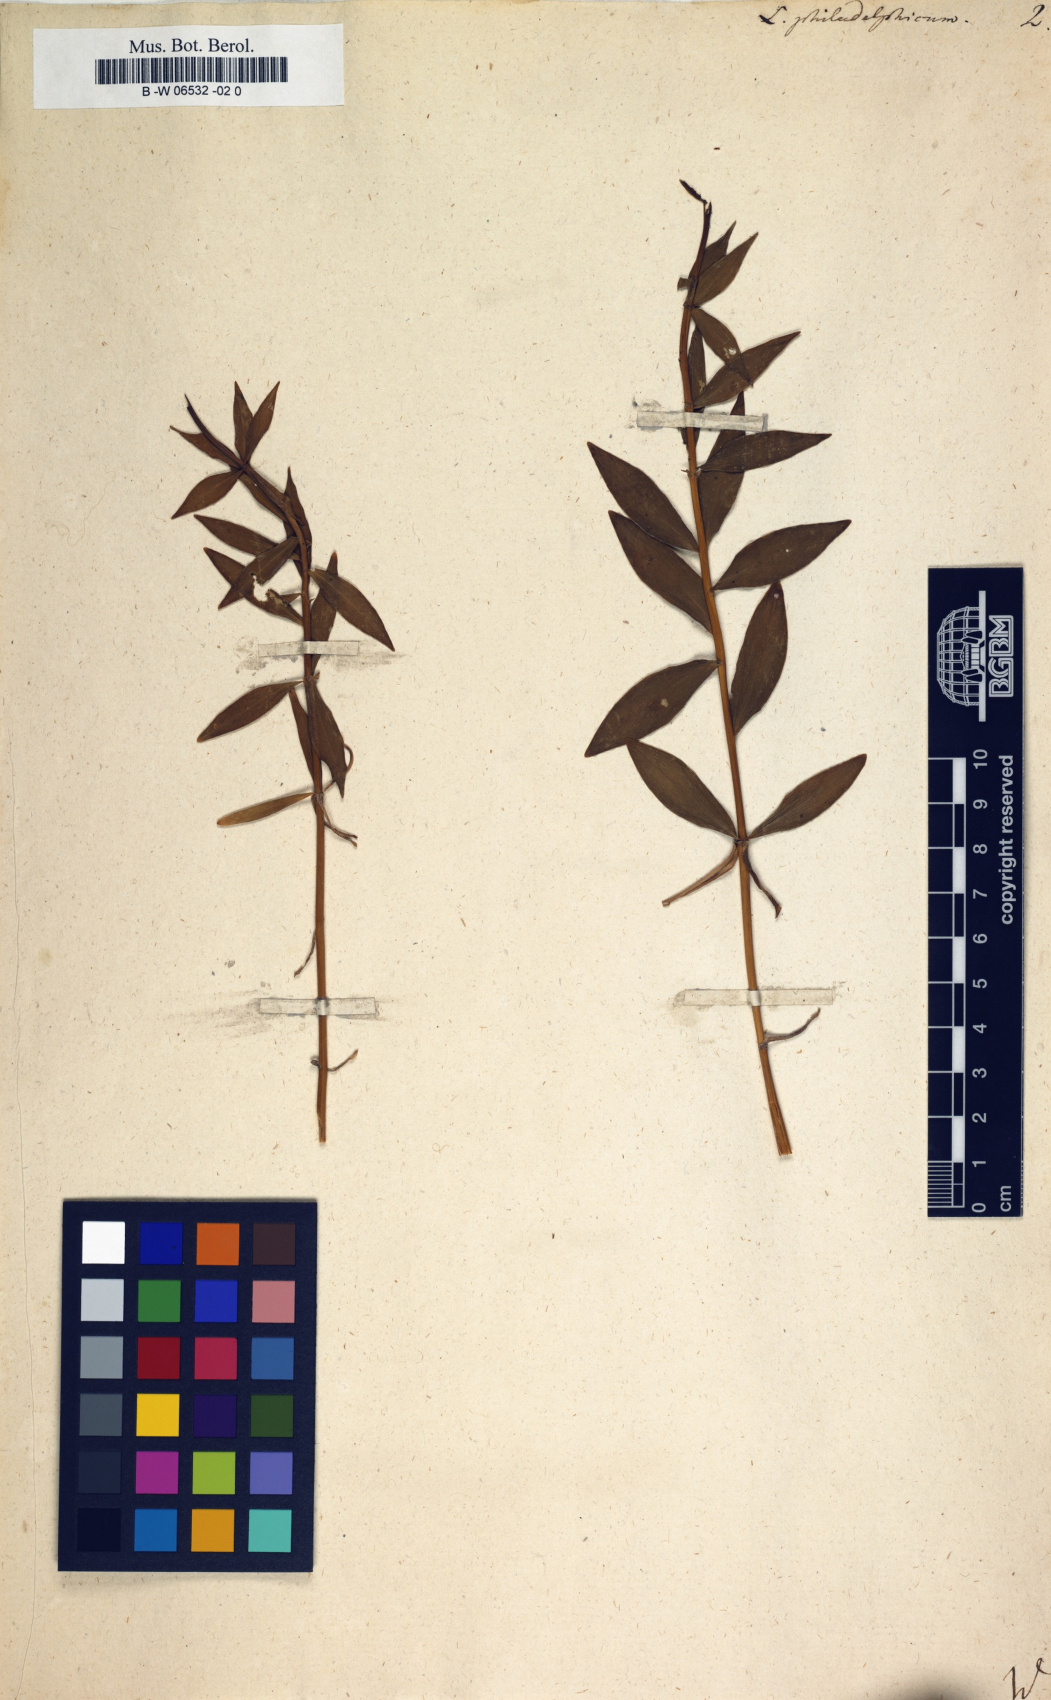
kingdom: Plantae
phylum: Tracheophyta
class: Liliopsida
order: Liliales
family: Liliaceae
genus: Lilium
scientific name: Lilium philadelphicum
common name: Red lily
